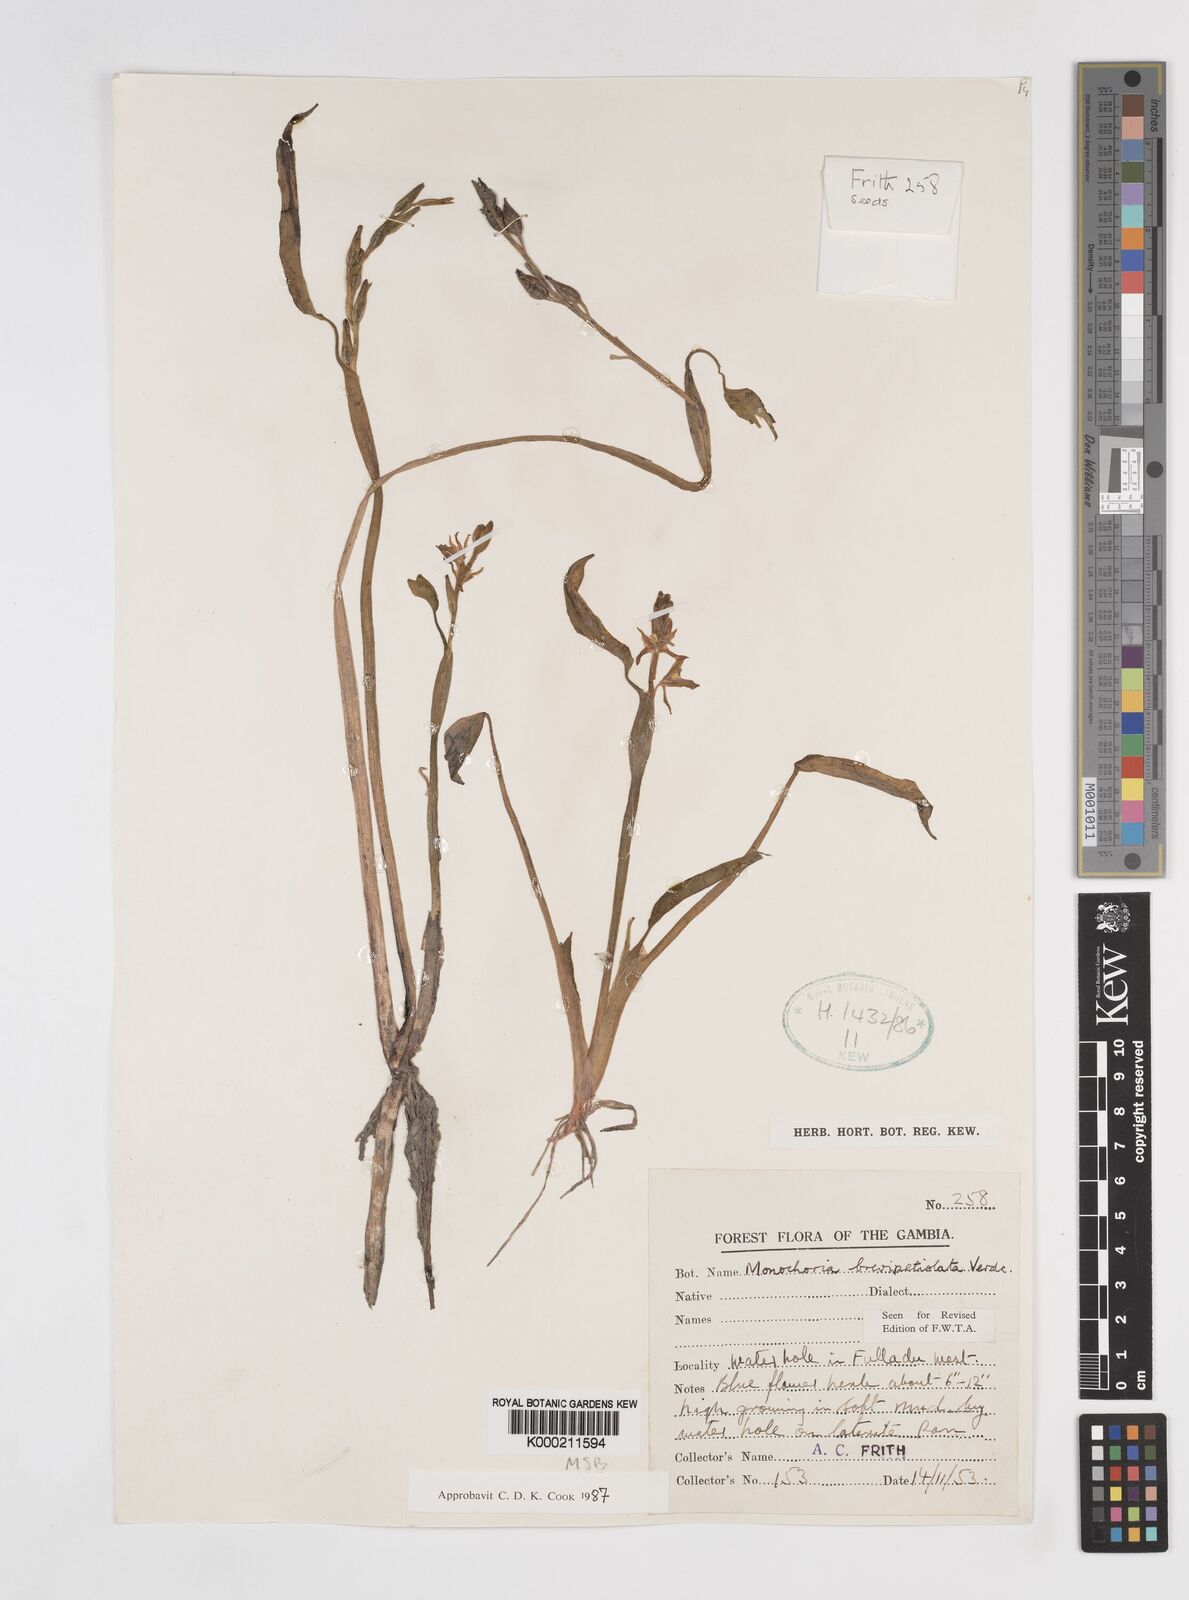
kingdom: Plantae
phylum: Tracheophyta
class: Liliopsida
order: Commelinales
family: Pontederiaceae
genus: Pontederia
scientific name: Pontederia brevipetiolata
